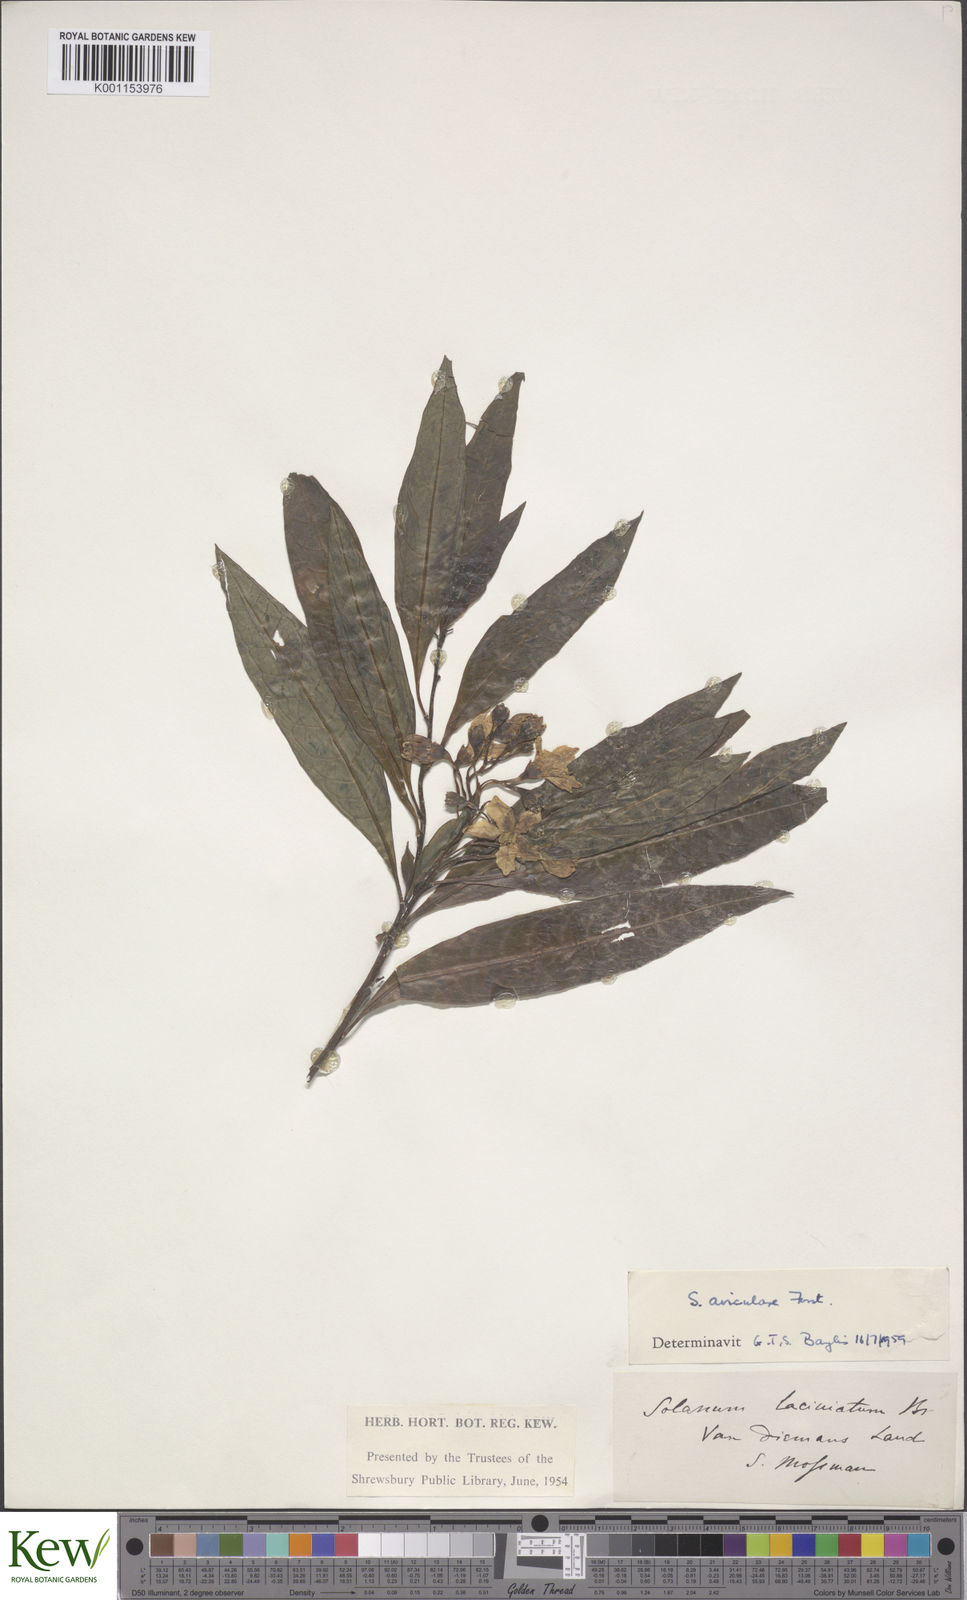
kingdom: Plantae
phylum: Tracheophyta
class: Magnoliopsida
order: Solanales
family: Solanaceae
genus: Solanum
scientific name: Solanum aviculare
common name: New zealand nightshade
